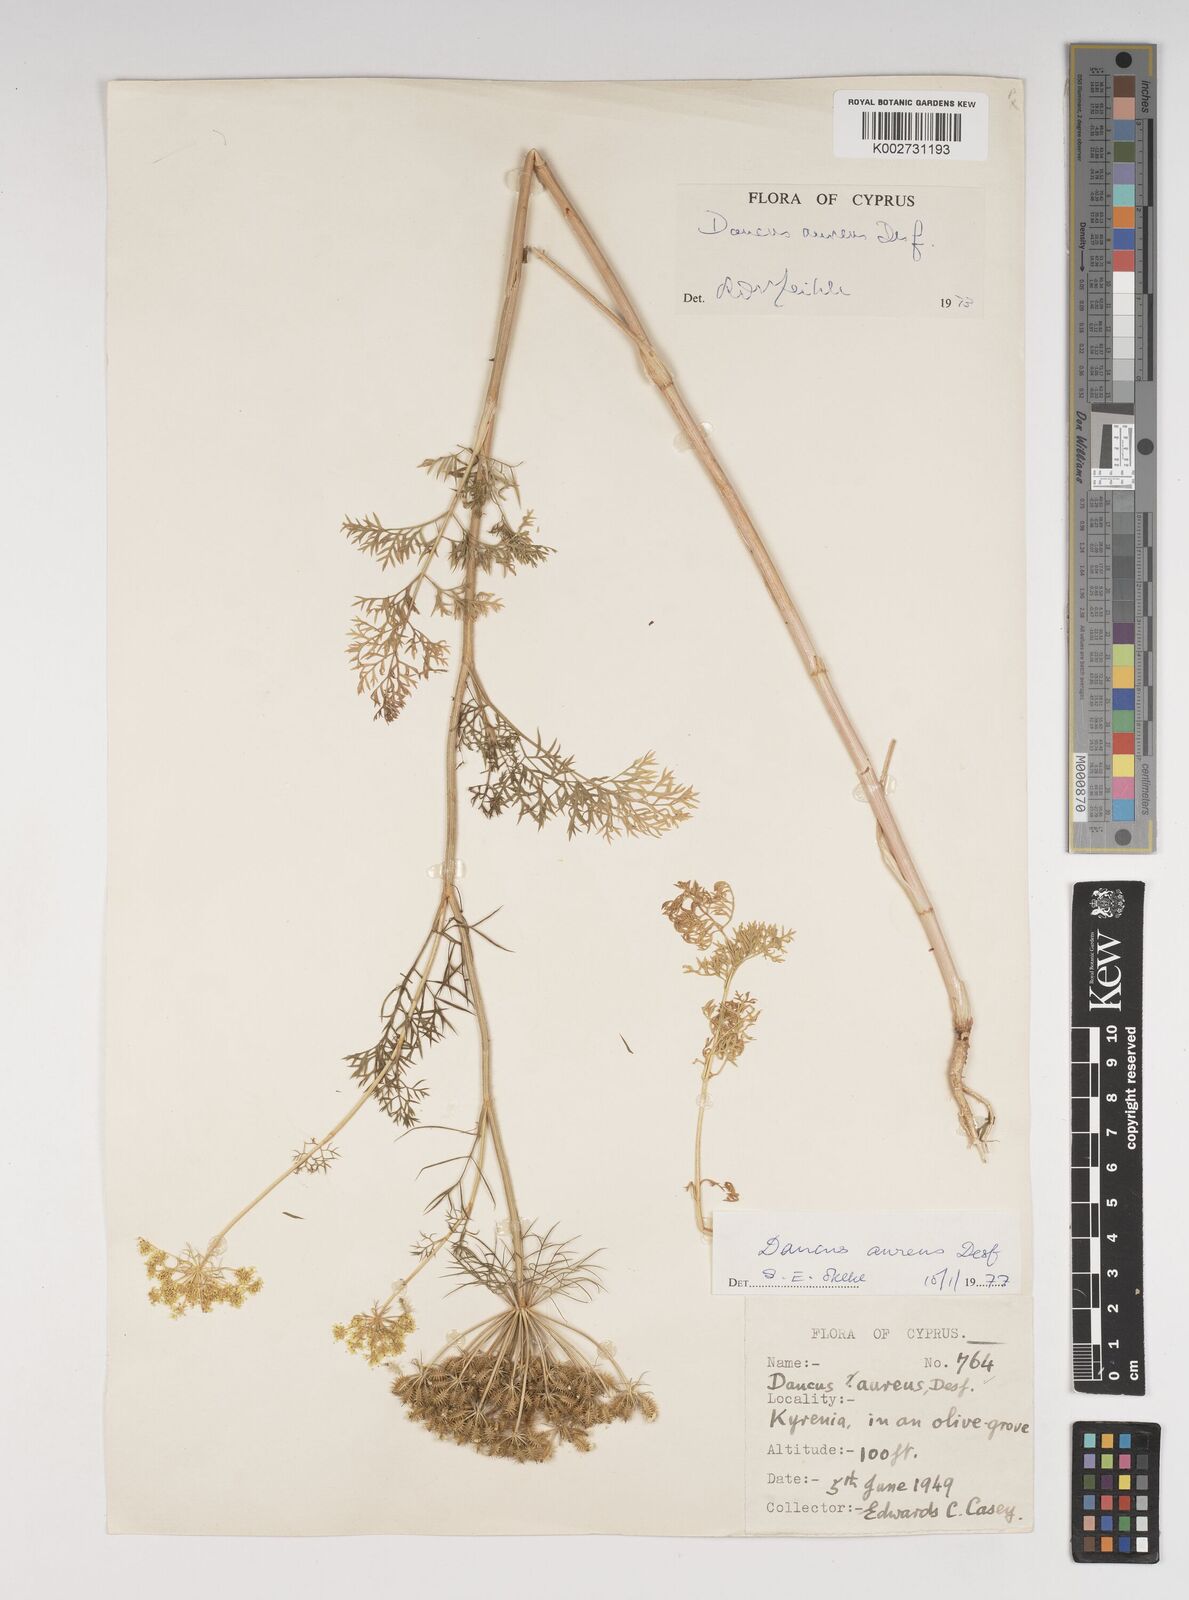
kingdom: Plantae
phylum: Tracheophyta
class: Magnoliopsida
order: Apiales
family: Apiaceae
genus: Daucus
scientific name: Daucus aureus
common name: Golden carrot
